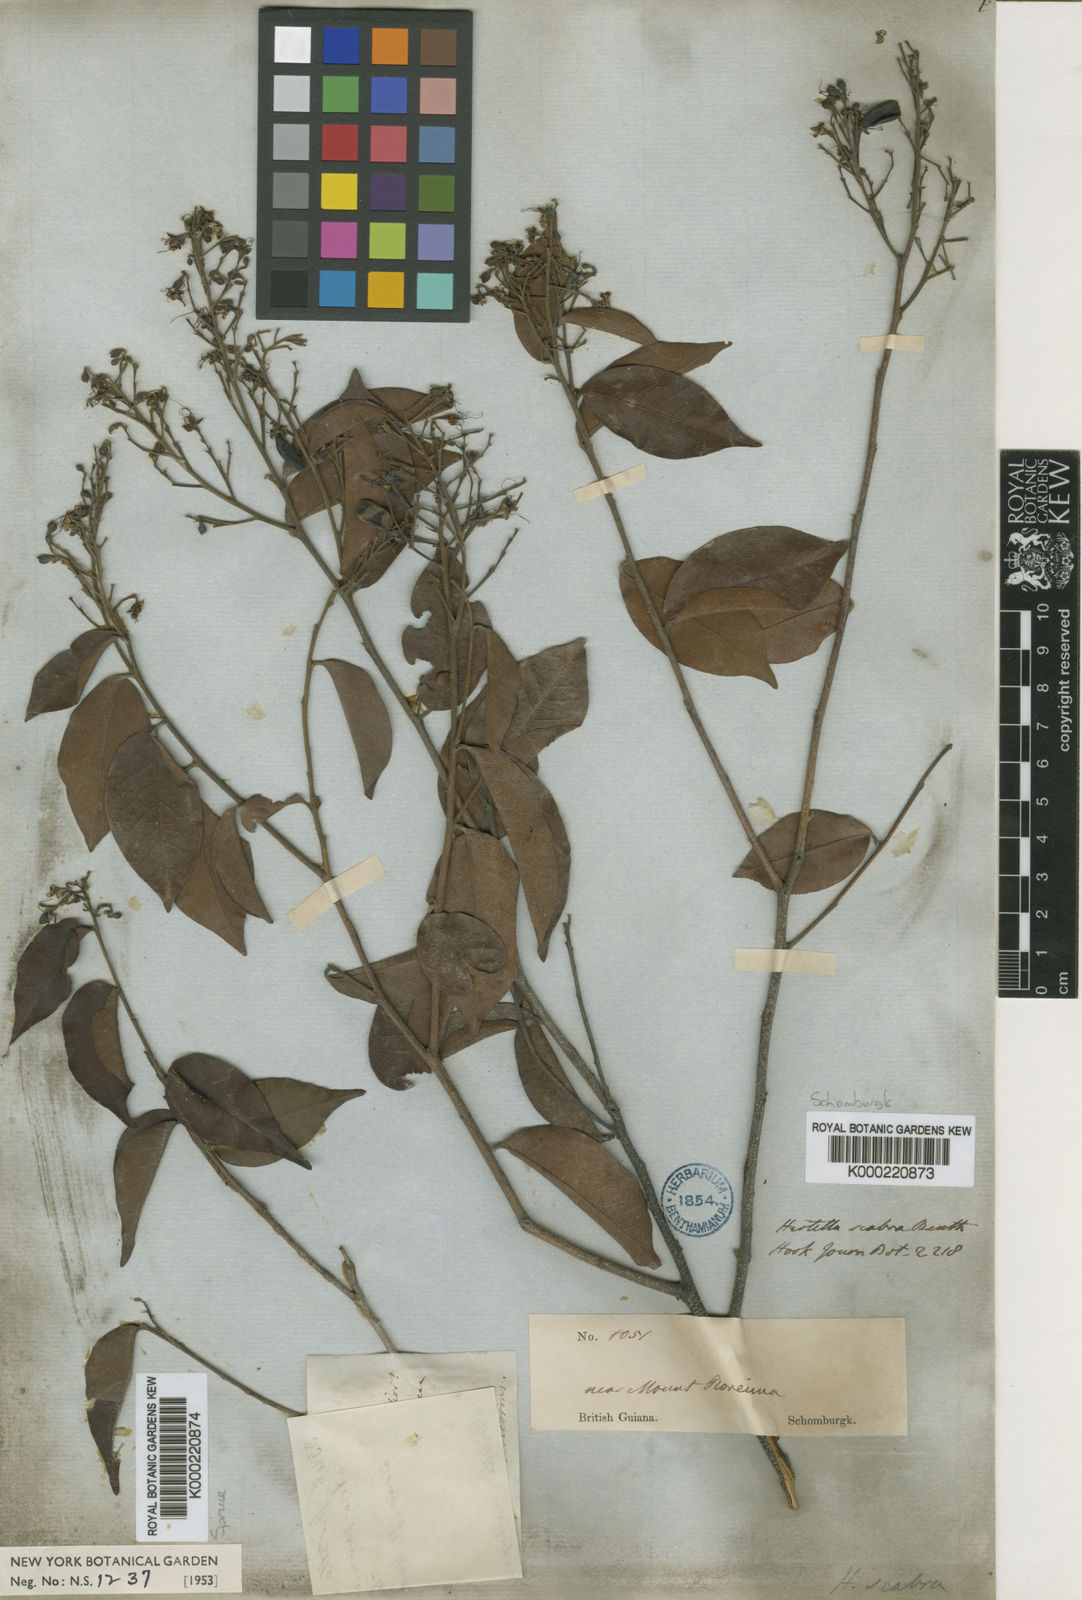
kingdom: Plantae
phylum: Tracheophyta
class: Magnoliopsida
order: Malpighiales
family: Chrysobalanaceae
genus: Hirtella
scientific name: Hirtella scabra
